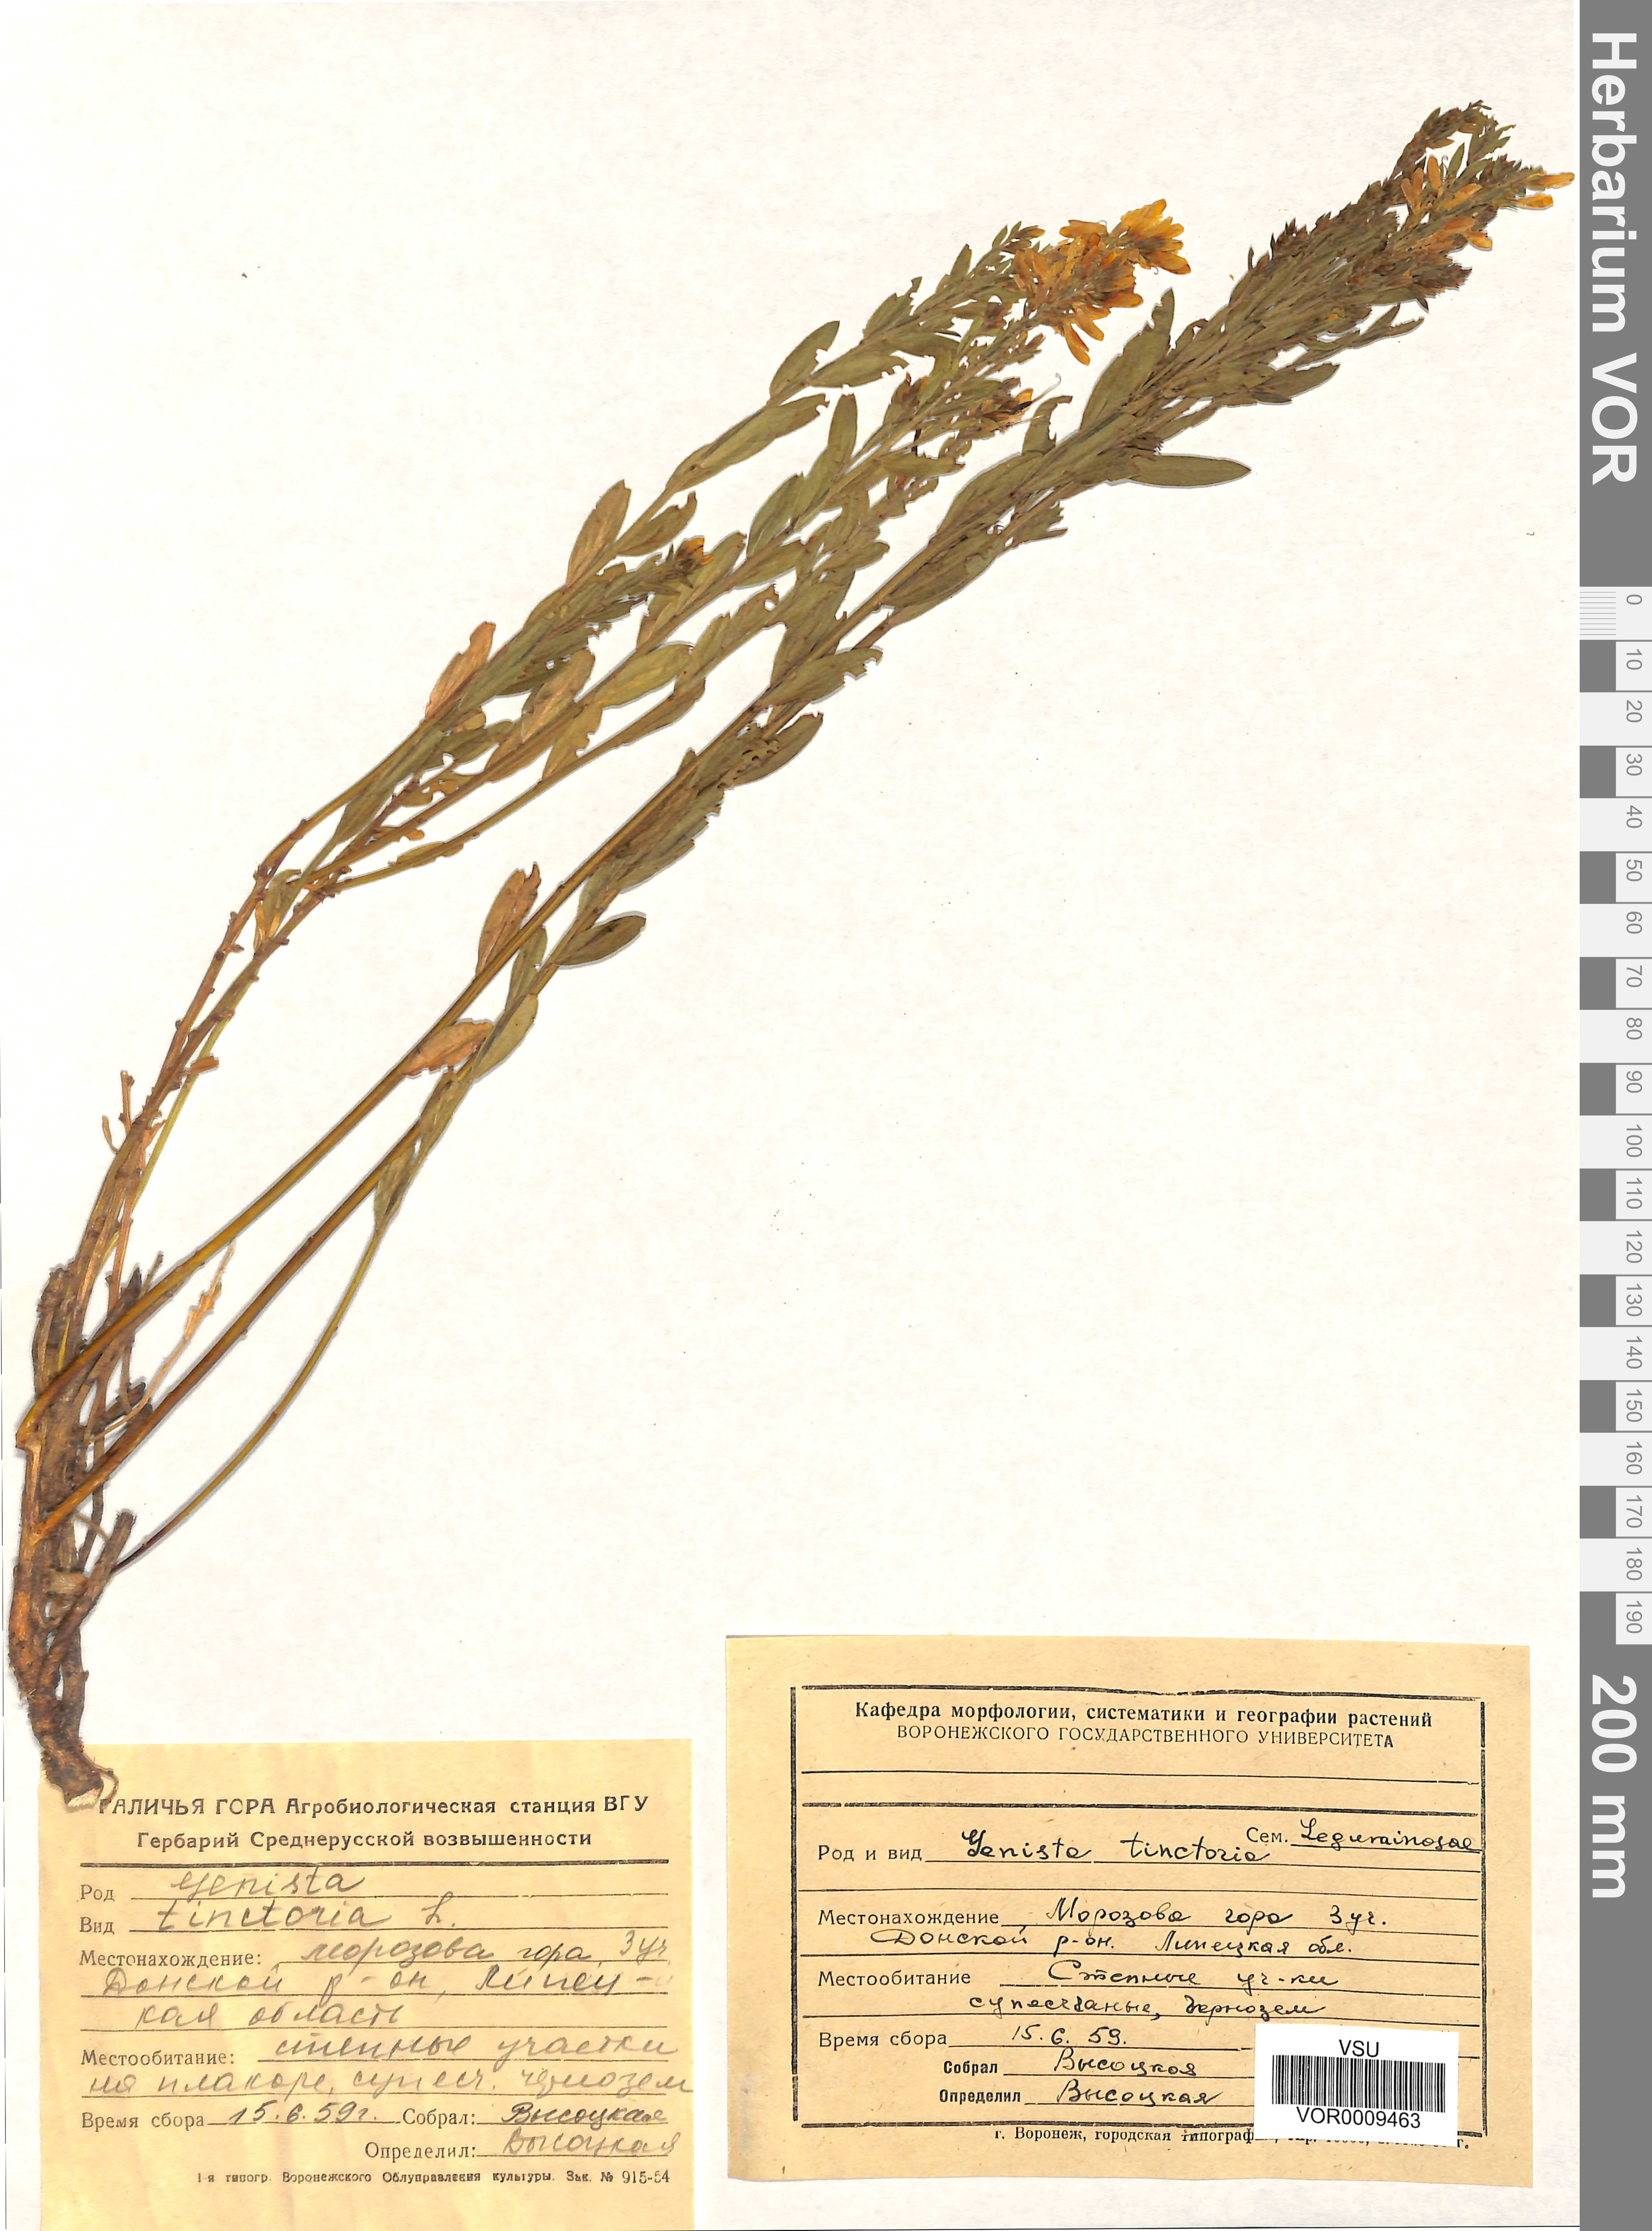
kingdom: Plantae
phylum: Tracheophyta
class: Magnoliopsida
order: Fabales
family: Fabaceae
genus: Genista
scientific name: Genista tinctoria
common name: Dyer's greenweed
